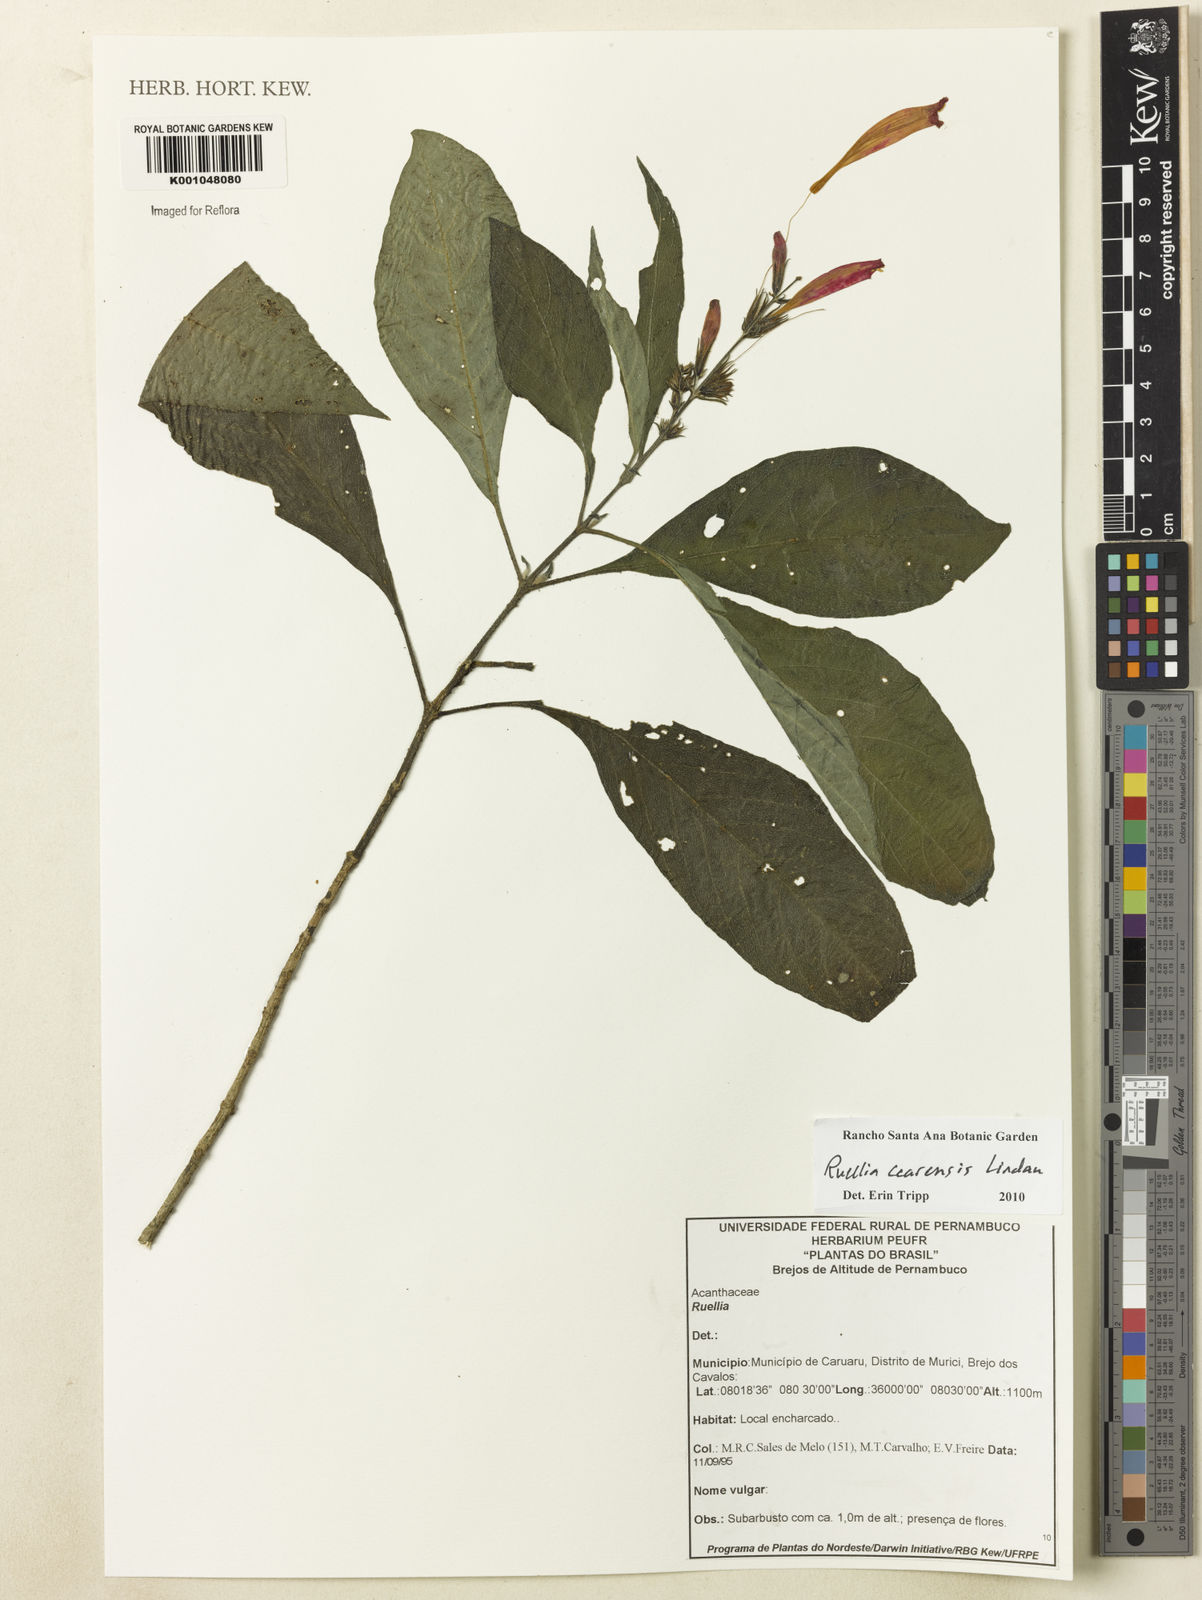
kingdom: Plantae
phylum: Tracheophyta
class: Magnoliopsida
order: Lamiales
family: Acanthaceae
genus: Ruellia
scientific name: Ruellia cearensis
